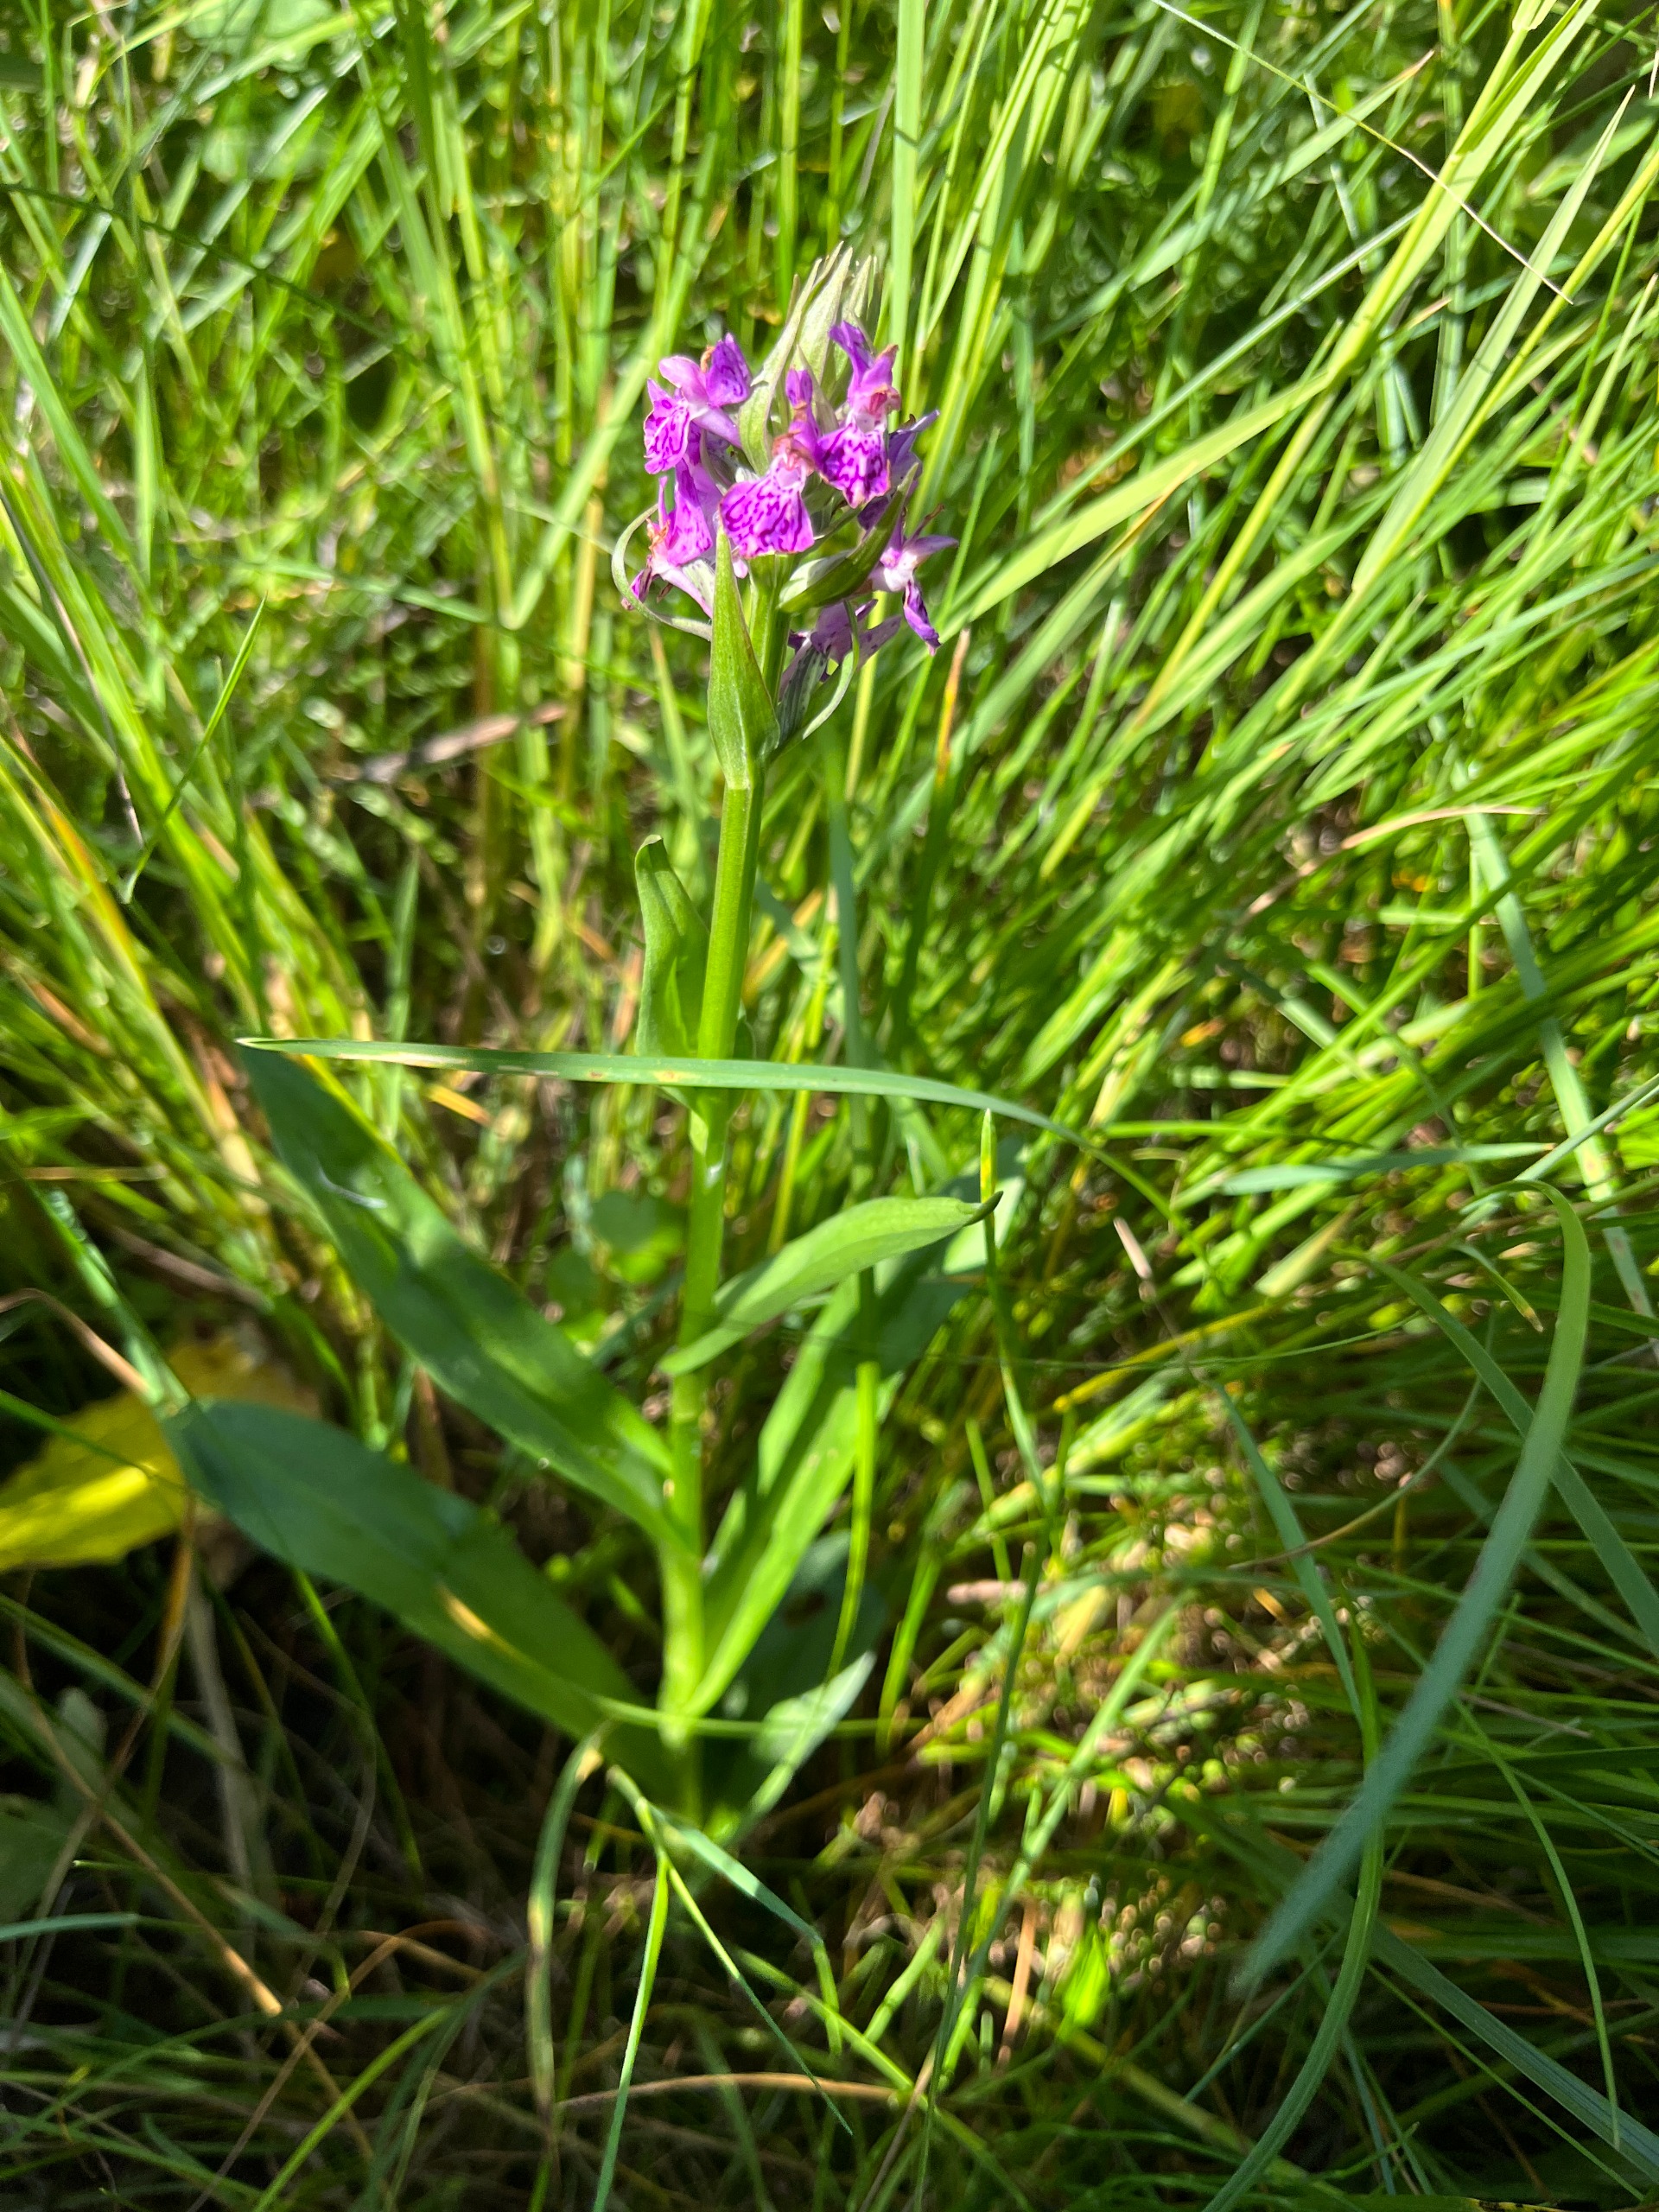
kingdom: Plantae
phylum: Tracheophyta
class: Liliopsida
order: Asparagales
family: Orchidaceae
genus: Dactylorhiza
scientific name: Dactylorhiza majalis
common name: Purpur-gøgeurt
